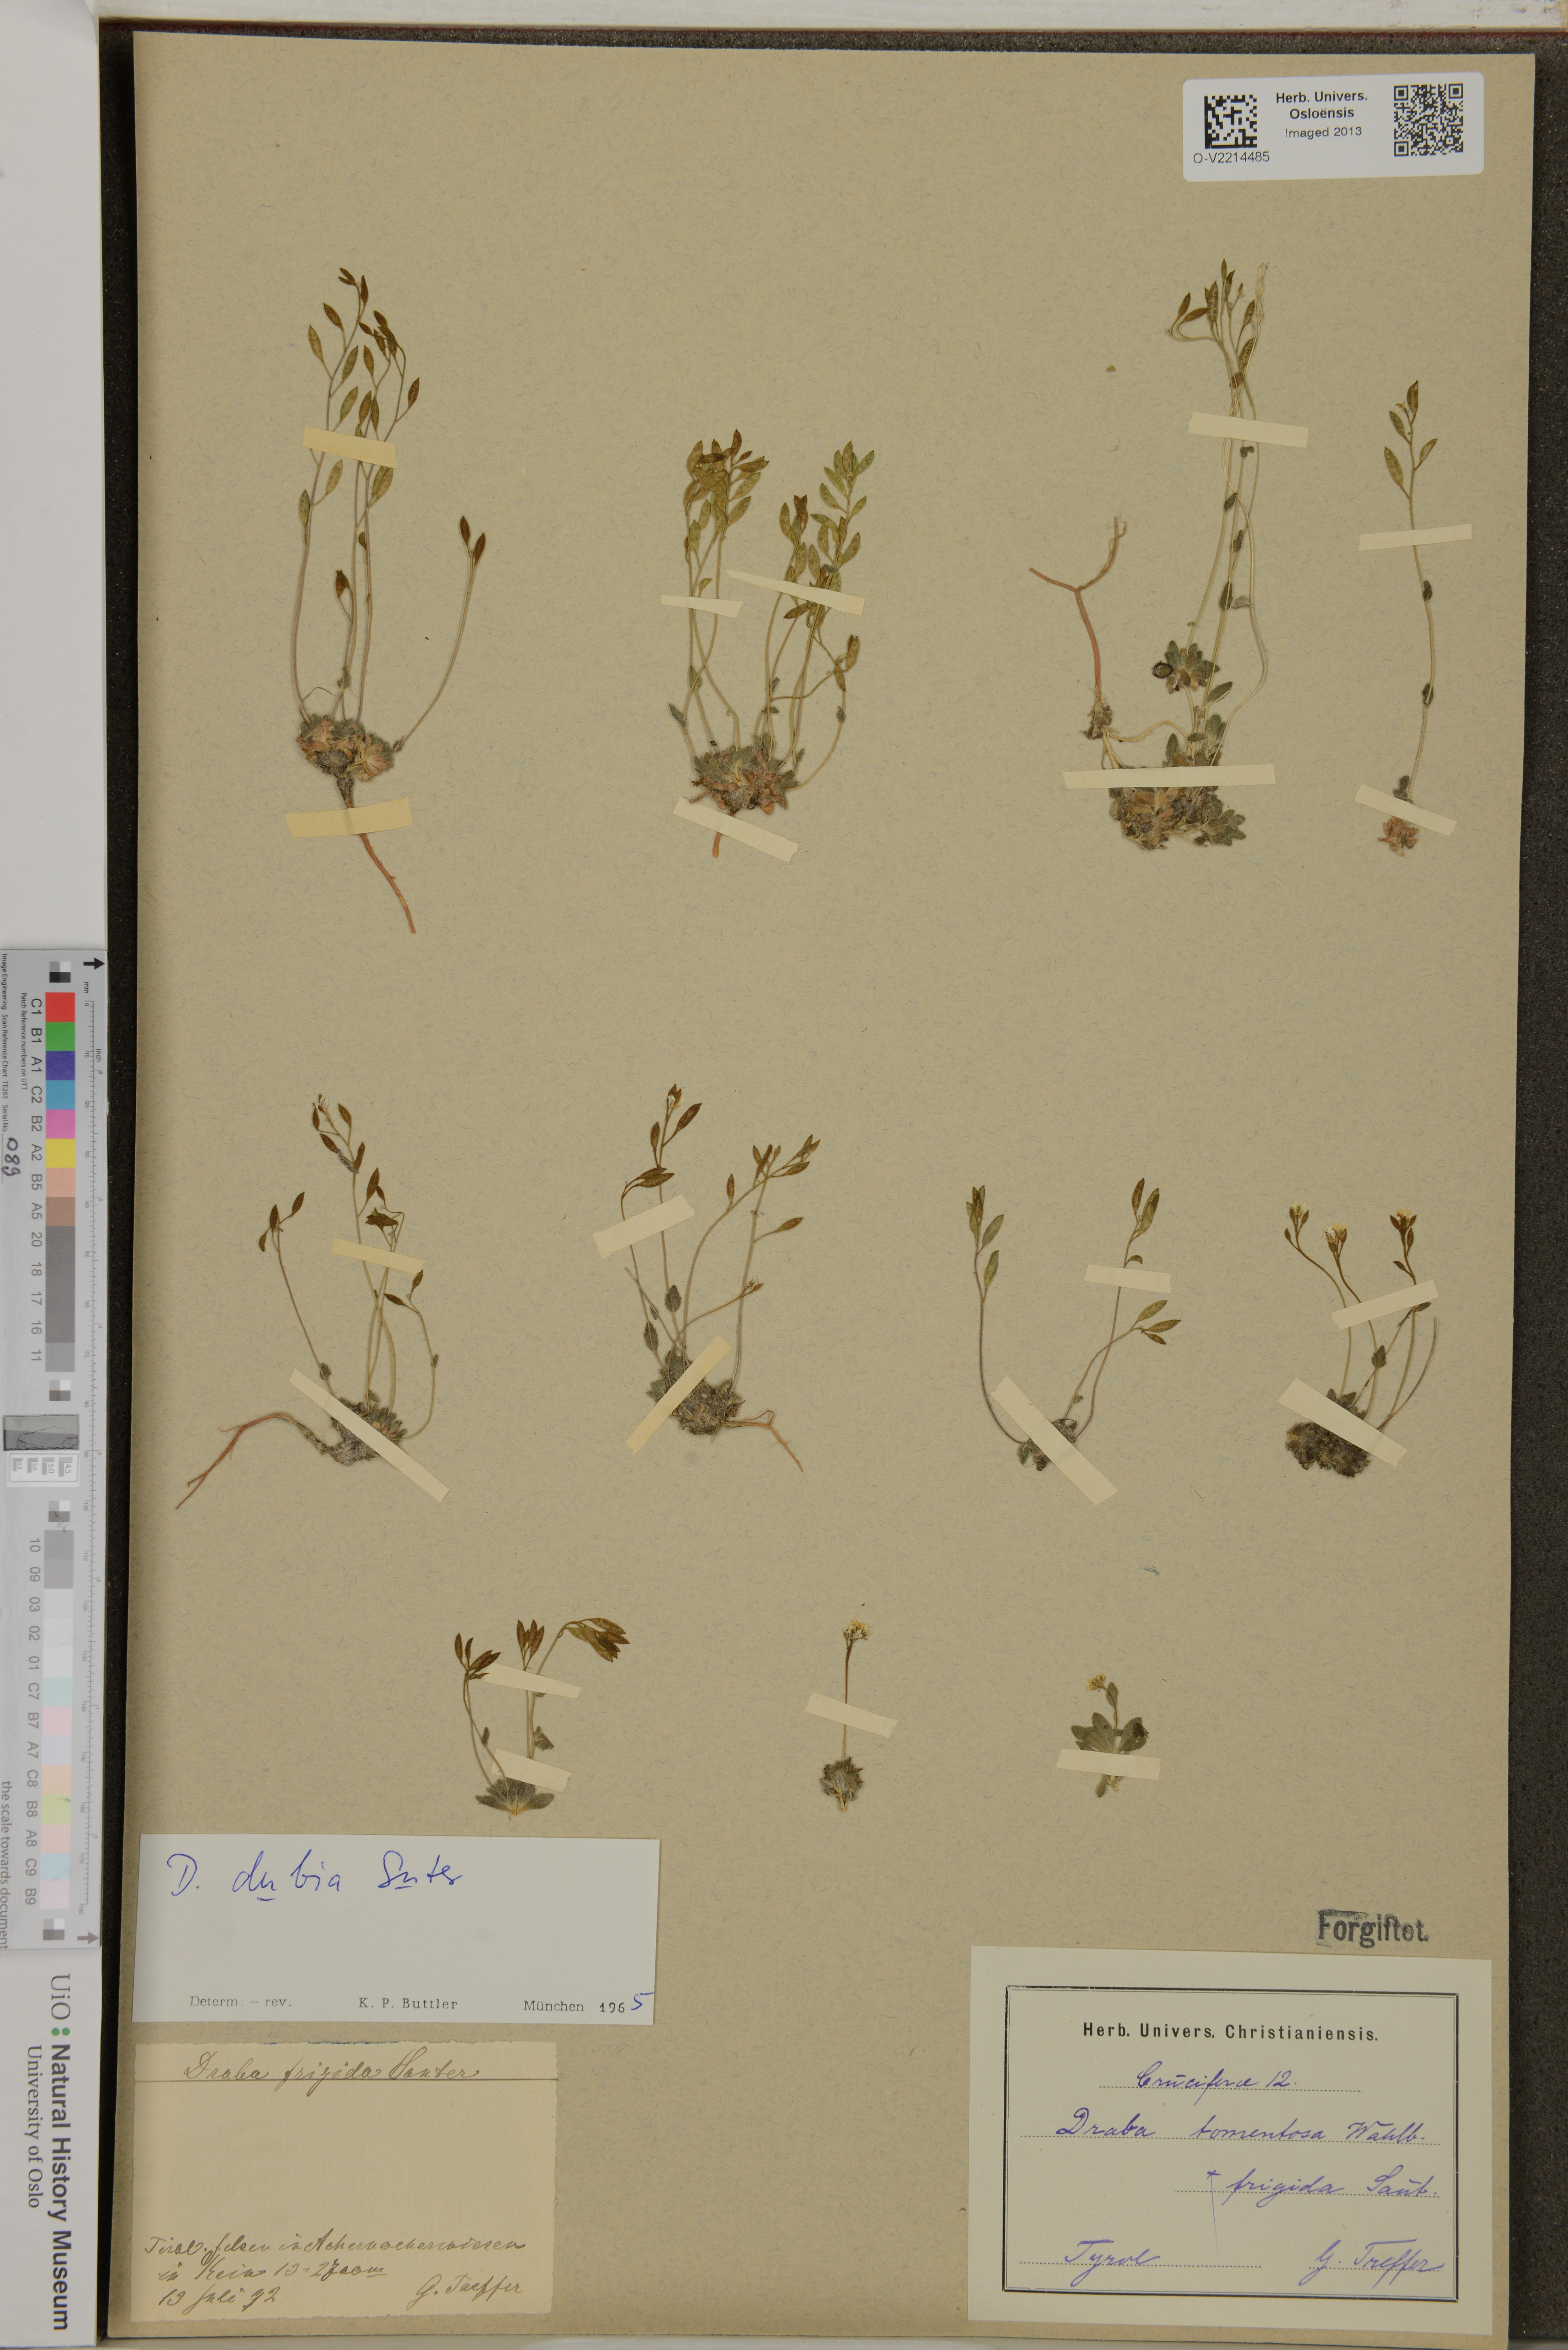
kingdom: Plantae
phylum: Tracheophyta
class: Magnoliopsida
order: Brassicales
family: Brassicaceae
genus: Draba
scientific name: Draba dubia
